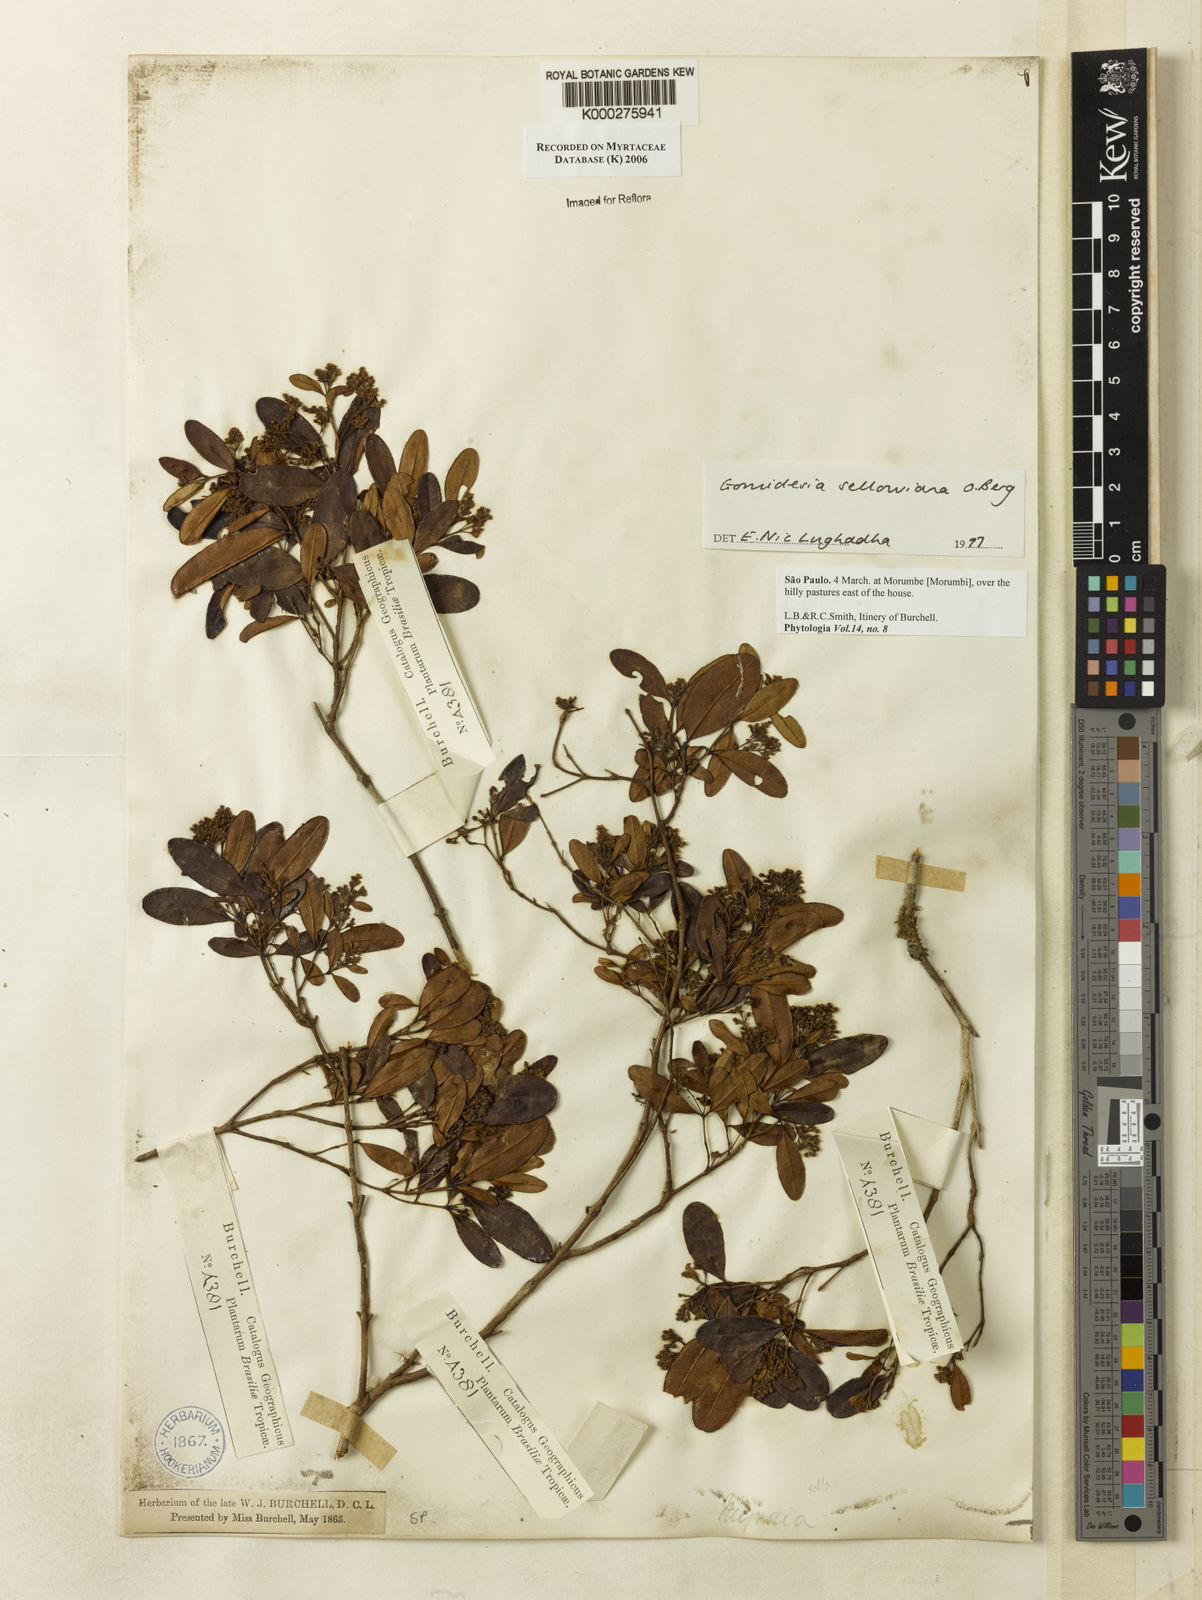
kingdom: Plantae
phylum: Tracheophyta
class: Magnoliopsida
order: Myrtales
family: Myrtaceae
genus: Myrcia
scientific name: Myrcia hartwegiana
